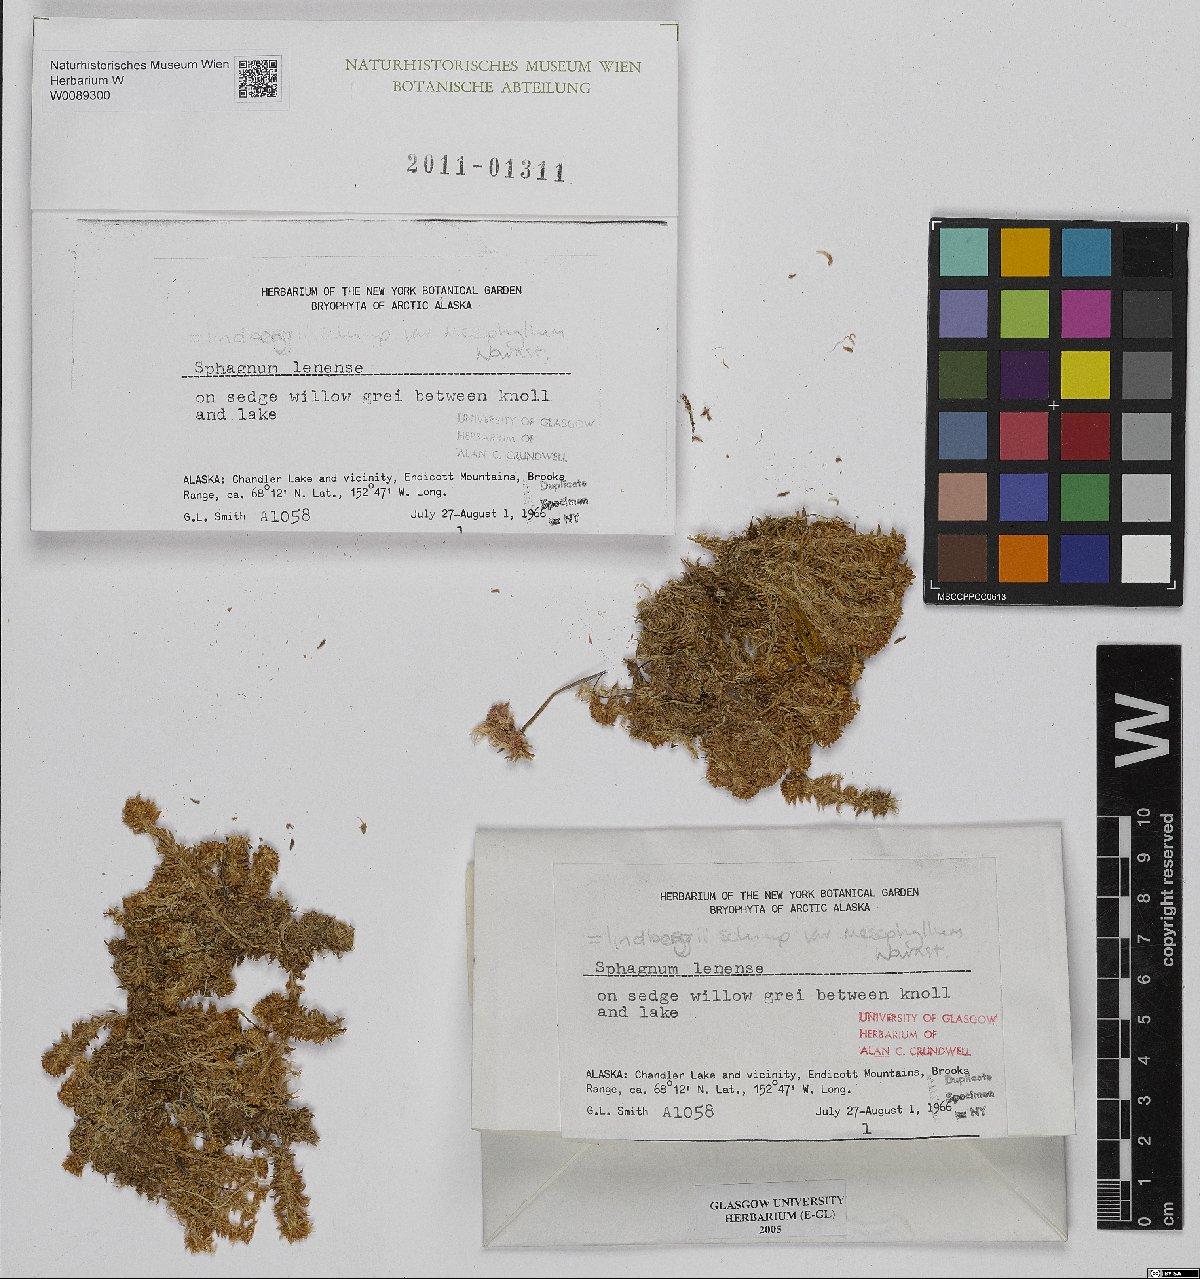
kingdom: Plantae
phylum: Bryophyta
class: Sphagnopsida
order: Sphagnales
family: Sphagnaceae
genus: Sphagnum
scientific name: Sphagnum lenense
